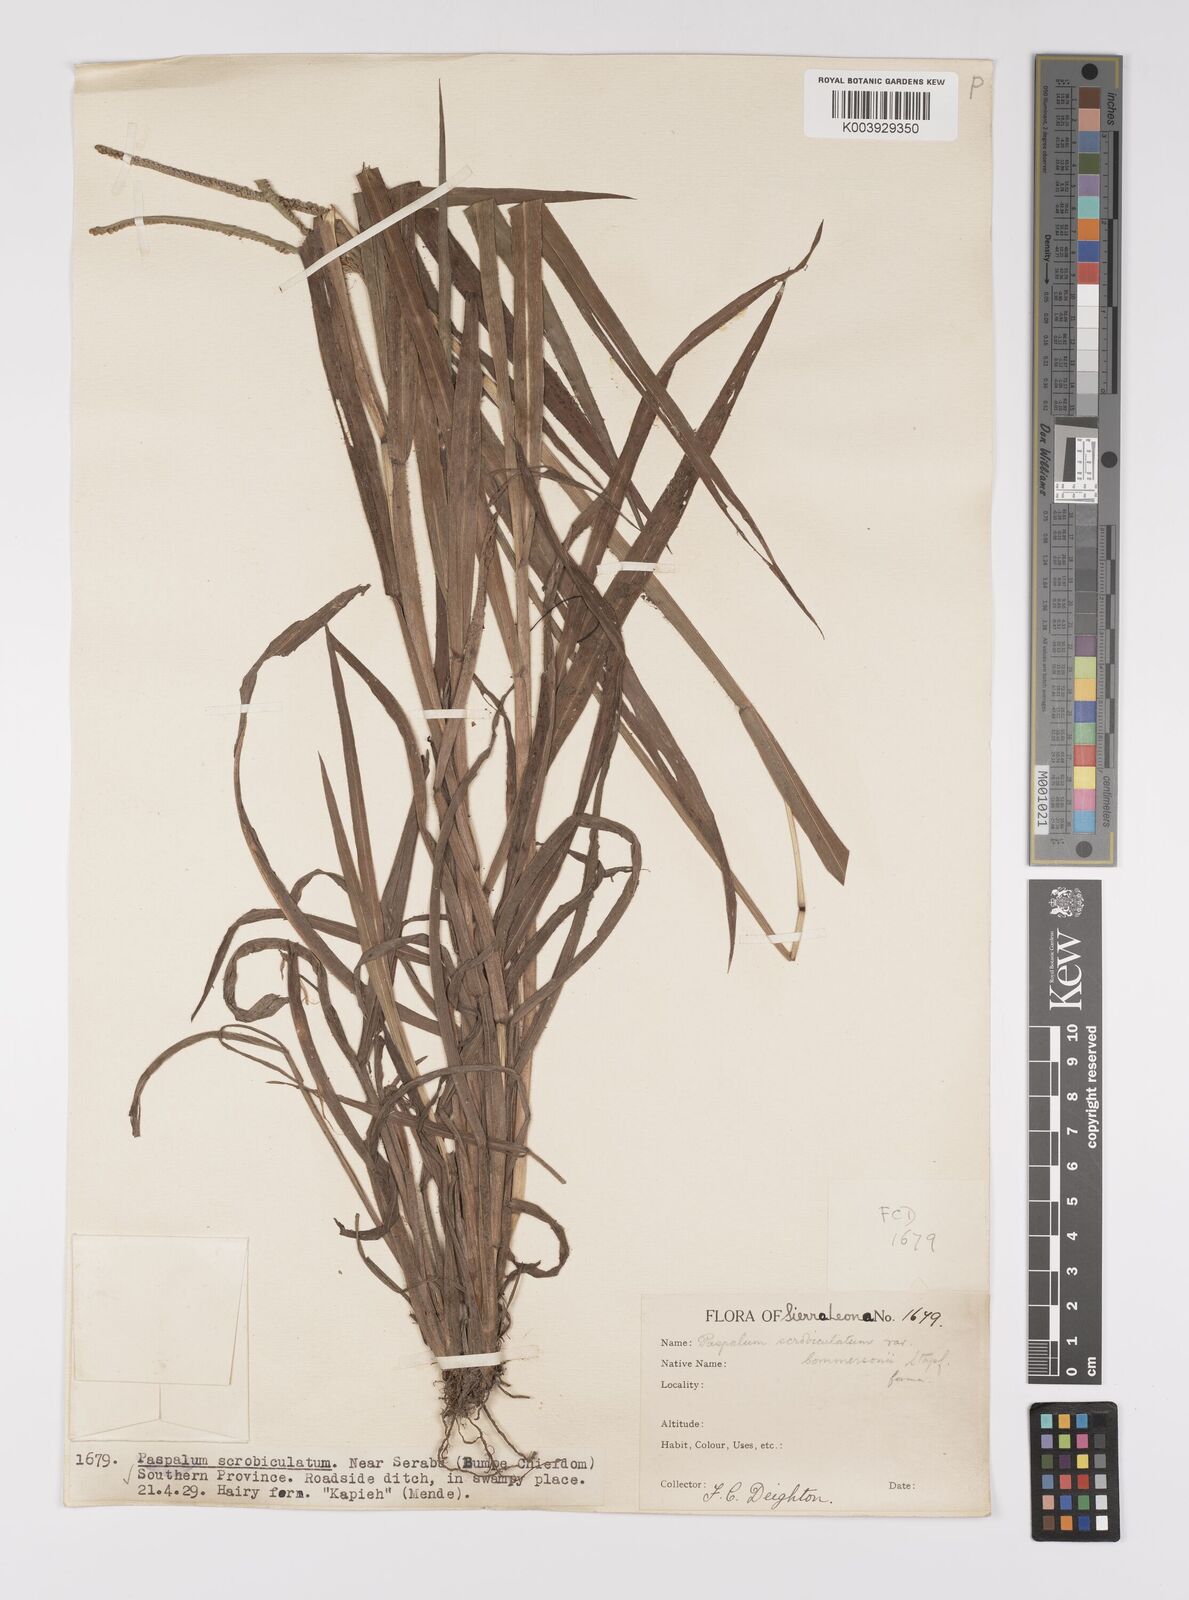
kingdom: Plantae
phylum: Tracheophyta
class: Liliopsida
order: Poales
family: Poaceae
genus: Paspalum
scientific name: Paspalum scrobiculatum
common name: Kodo millet
